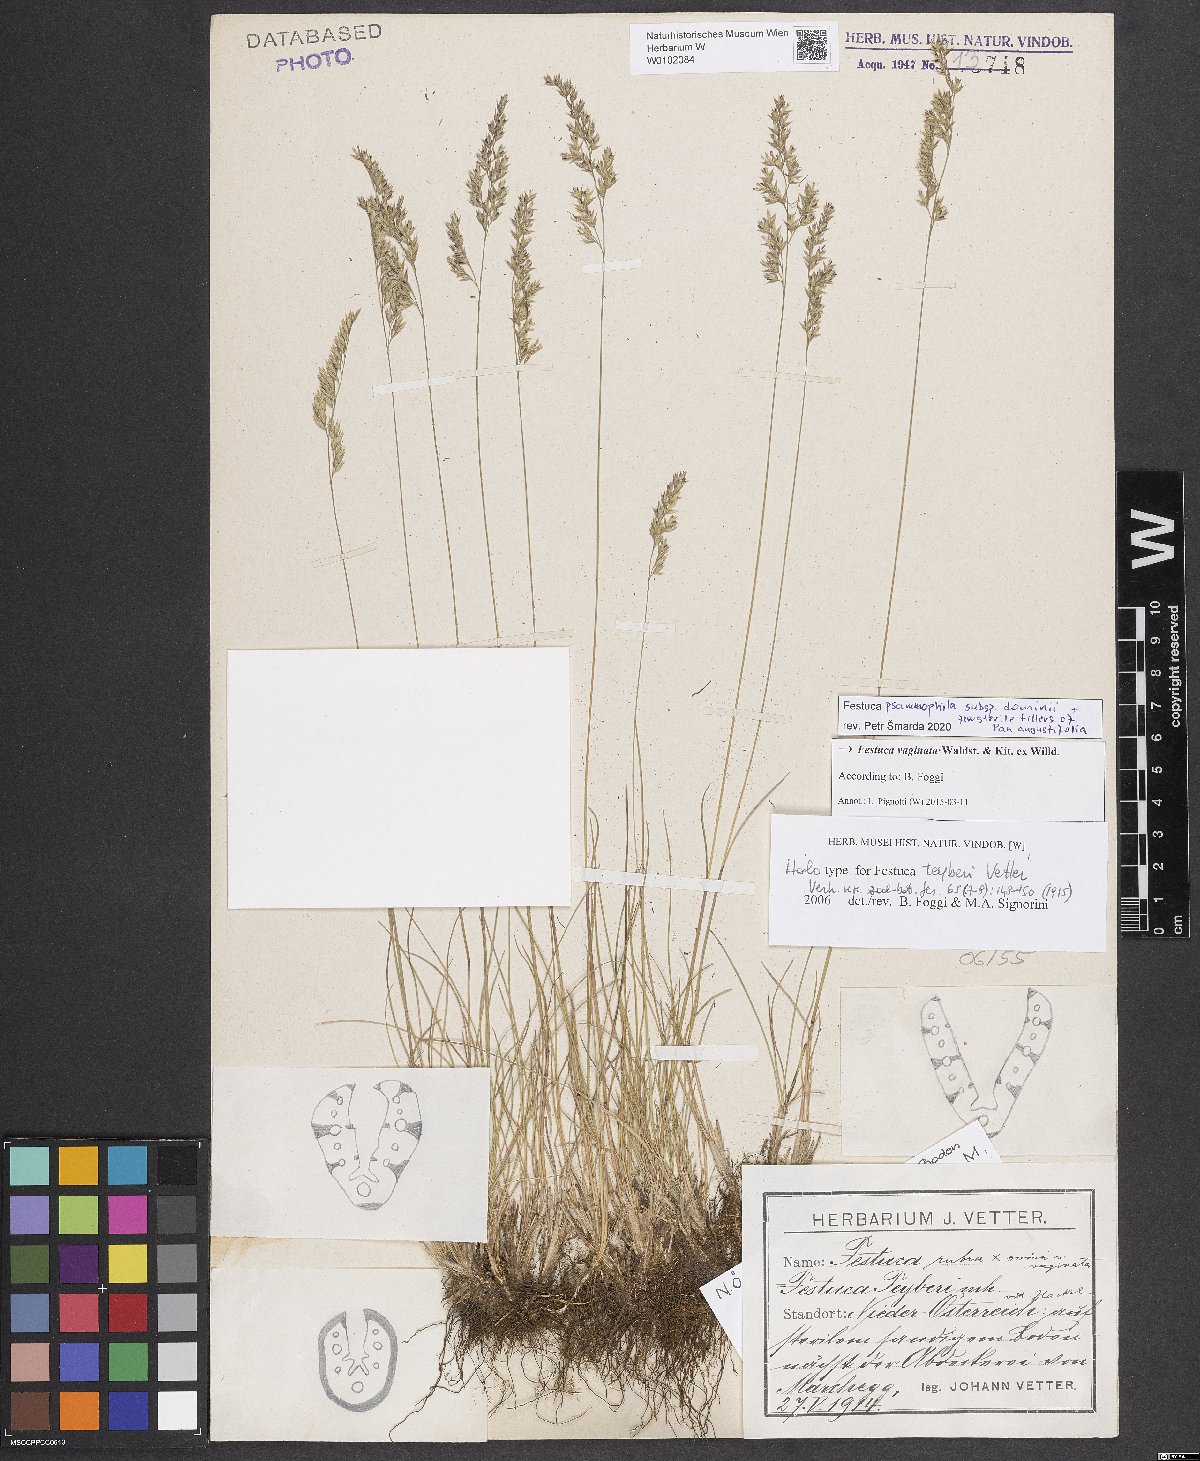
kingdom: Plantae
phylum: Tracheophyta
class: Liliopsida
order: Poales
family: Poaceae
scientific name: Poaceae
